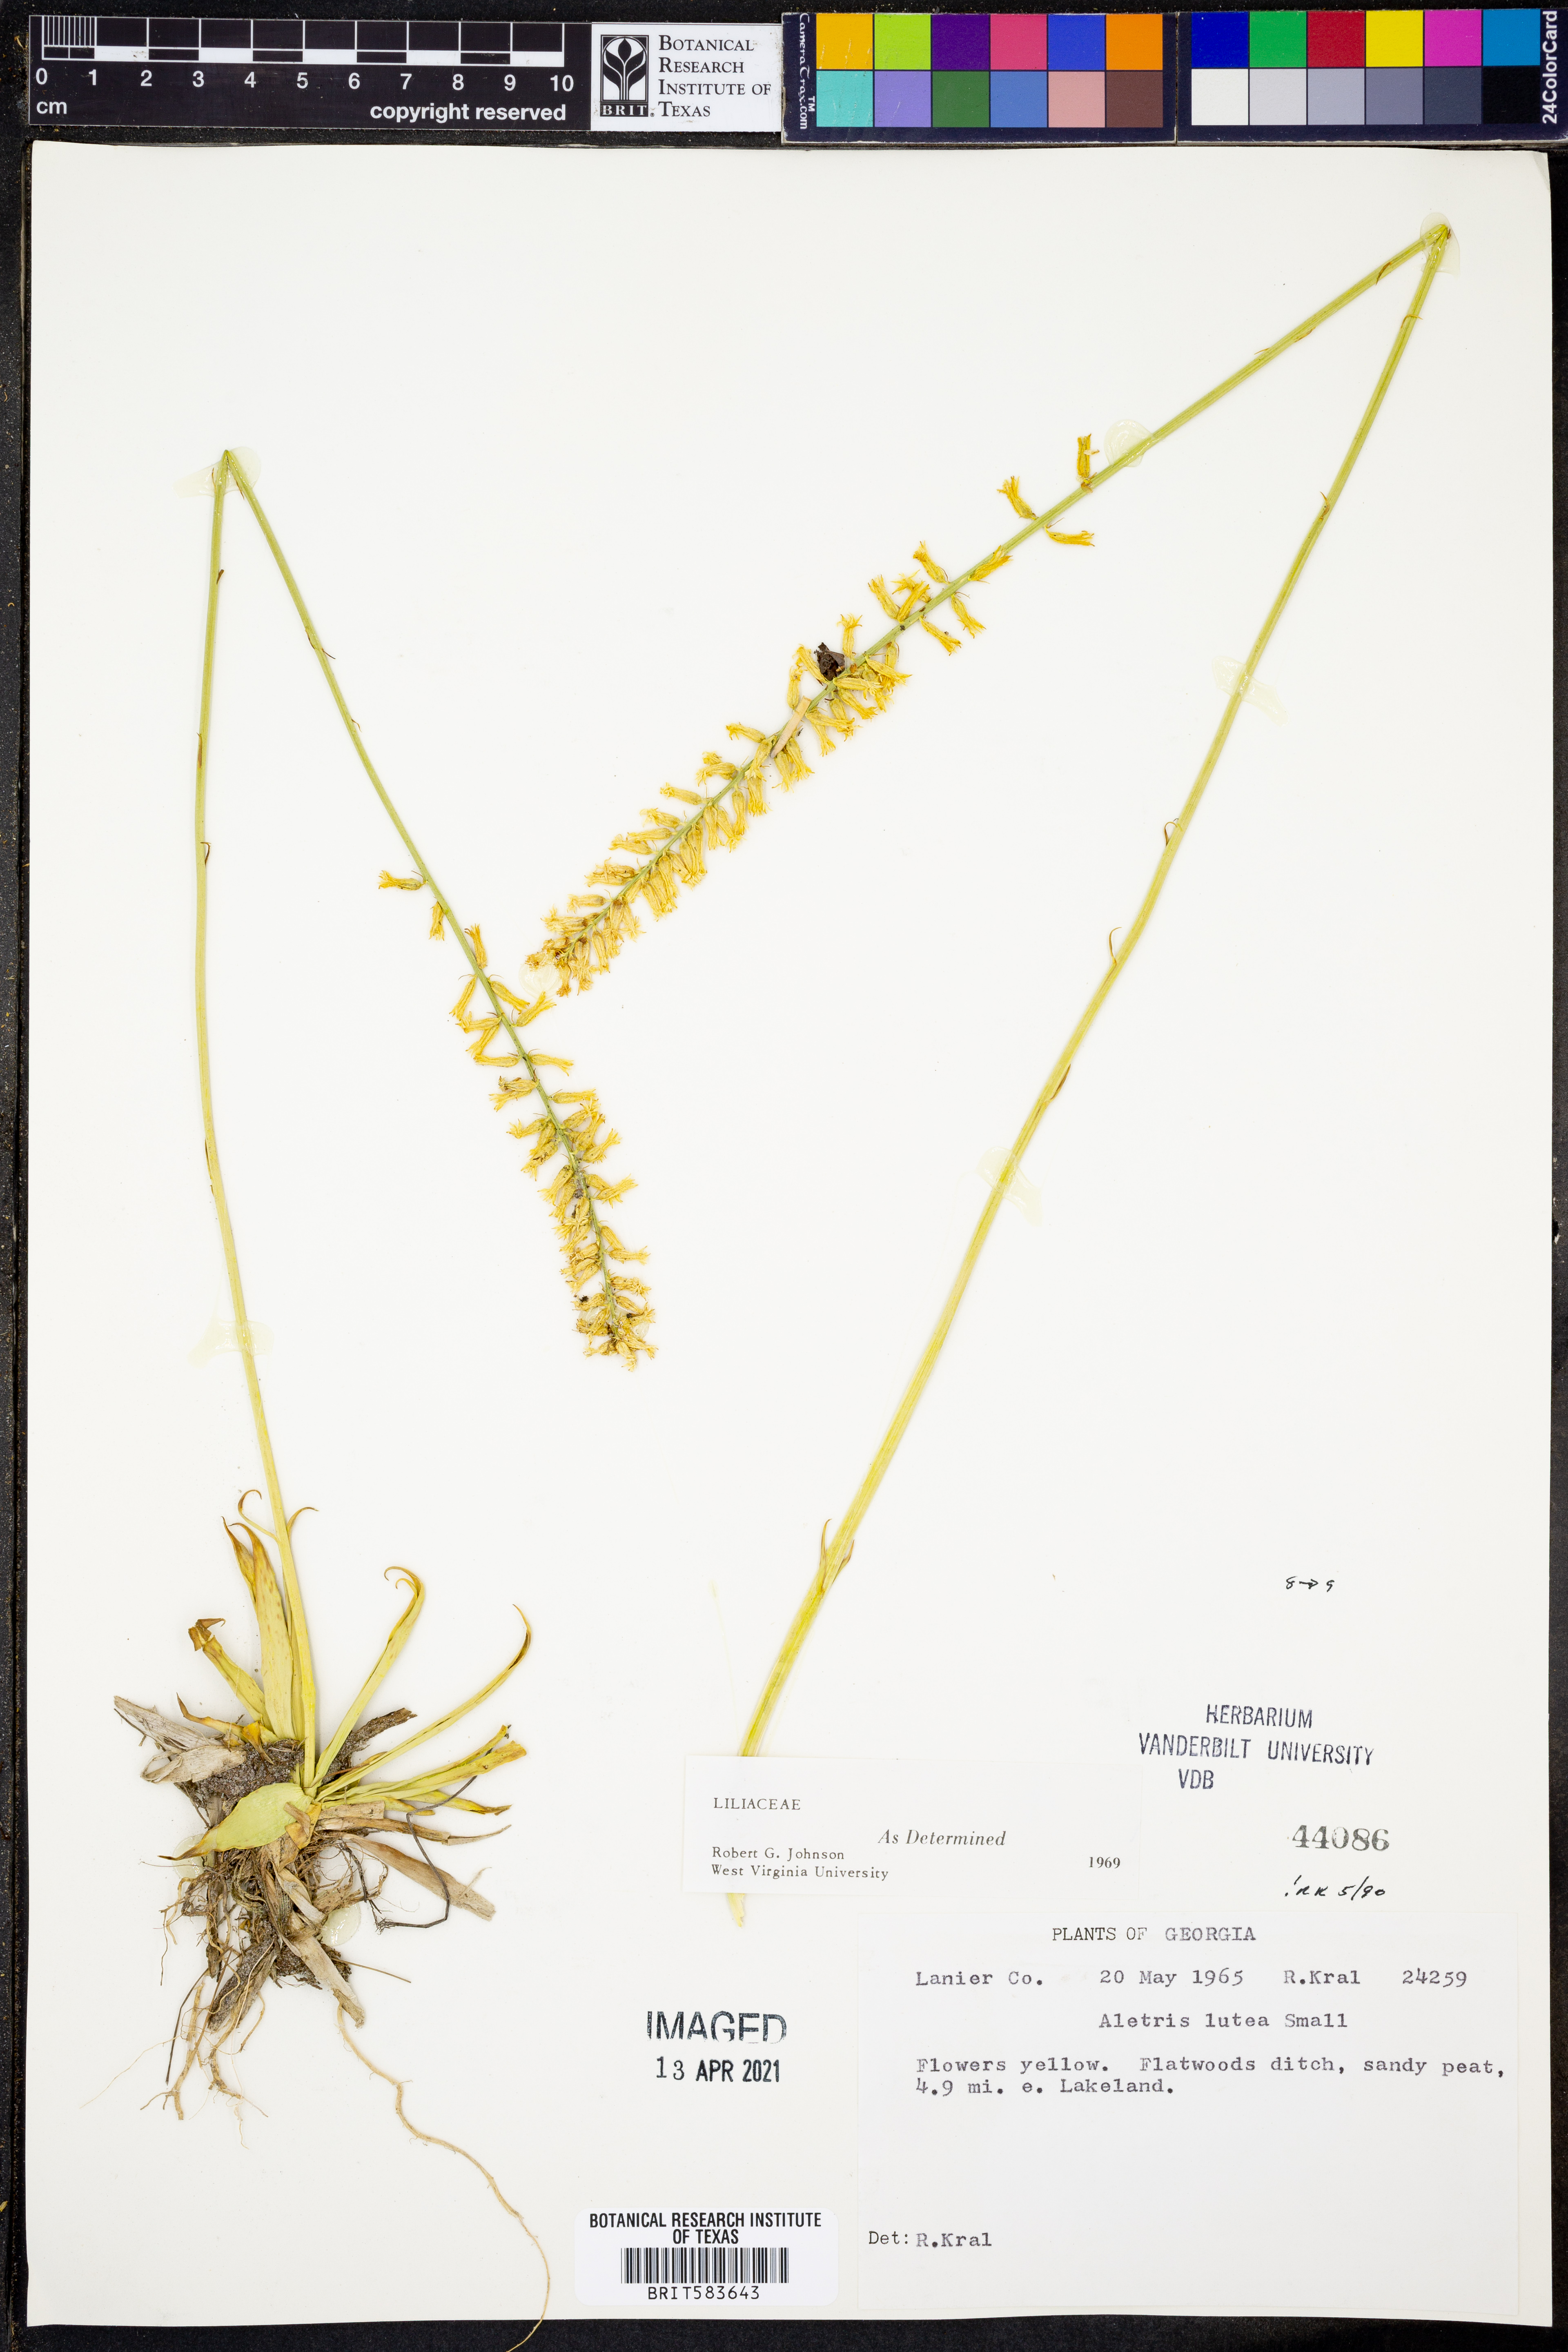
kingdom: Plantae
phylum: Tracheophyta
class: Liliopsida
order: Dioscoreales
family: Nartheciaceae
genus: Aletris
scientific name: Aletris lutea
